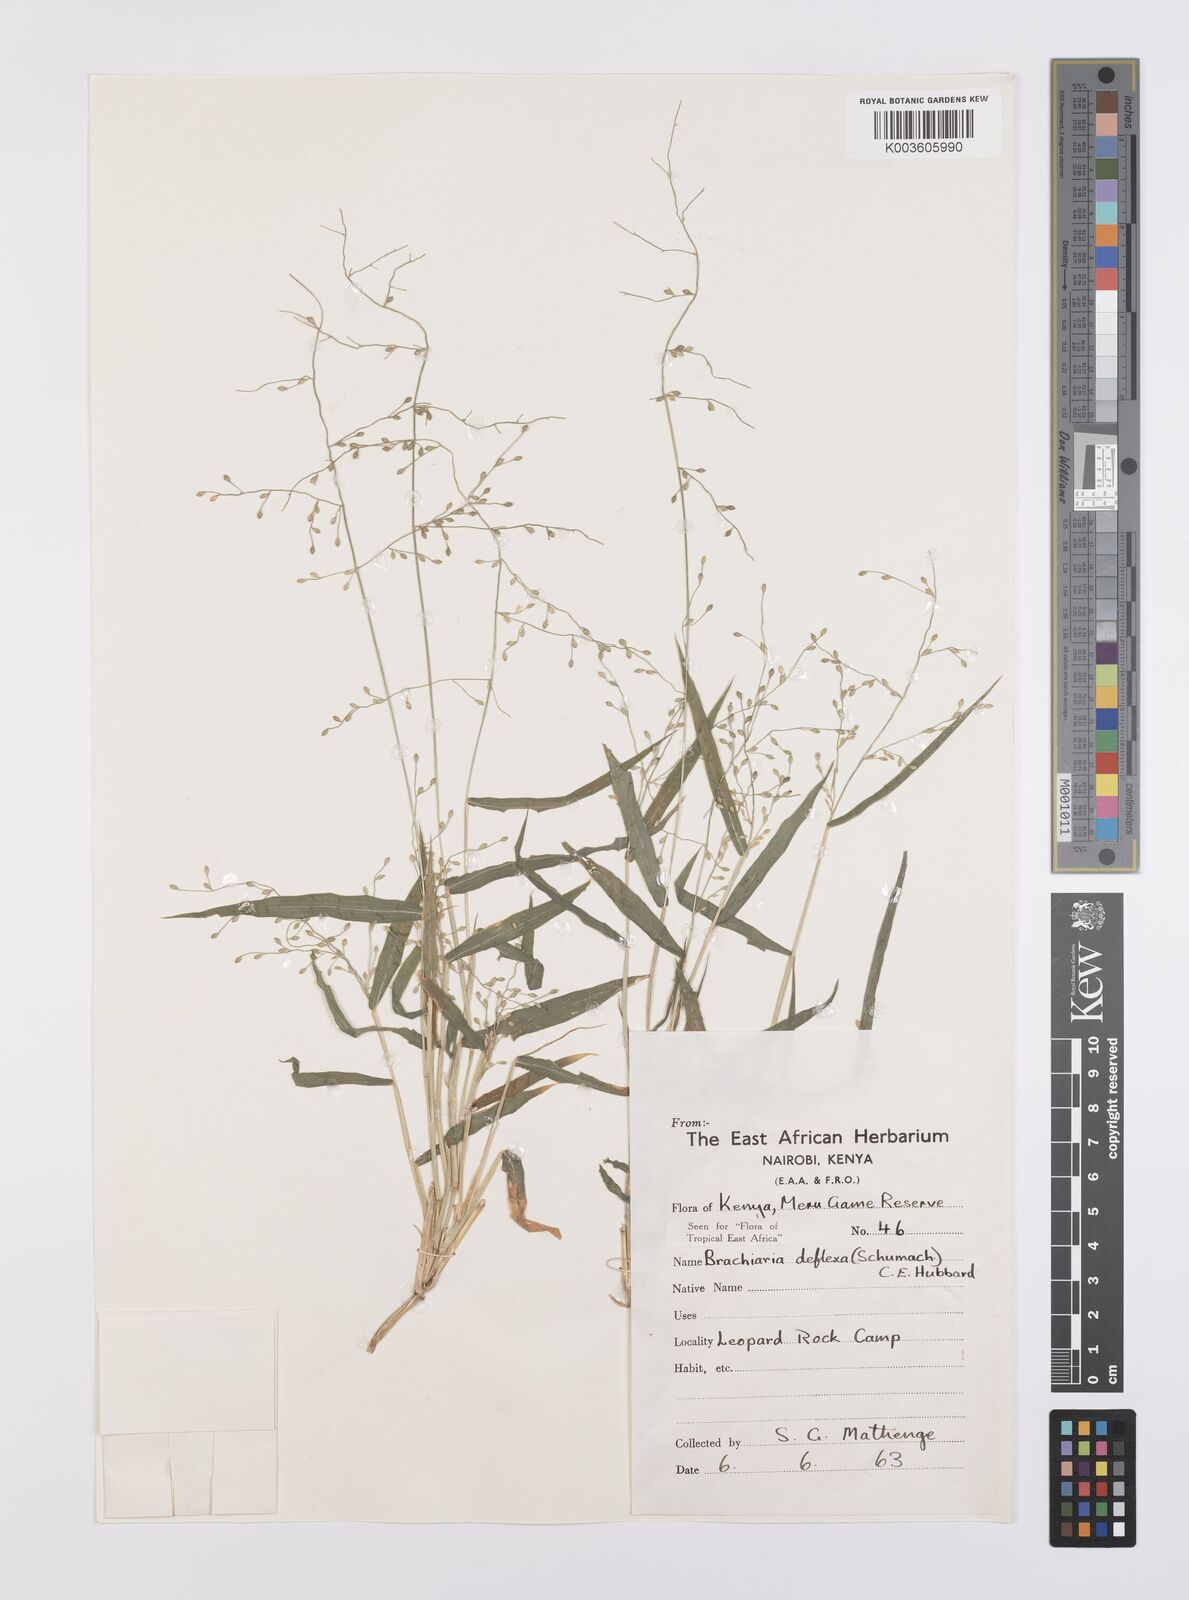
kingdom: Plantae
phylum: Tracheophyta
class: Liliopsida
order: Poales
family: Poaceae
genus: Urochloa
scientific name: Urochloa deflexa
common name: Guinea millet
